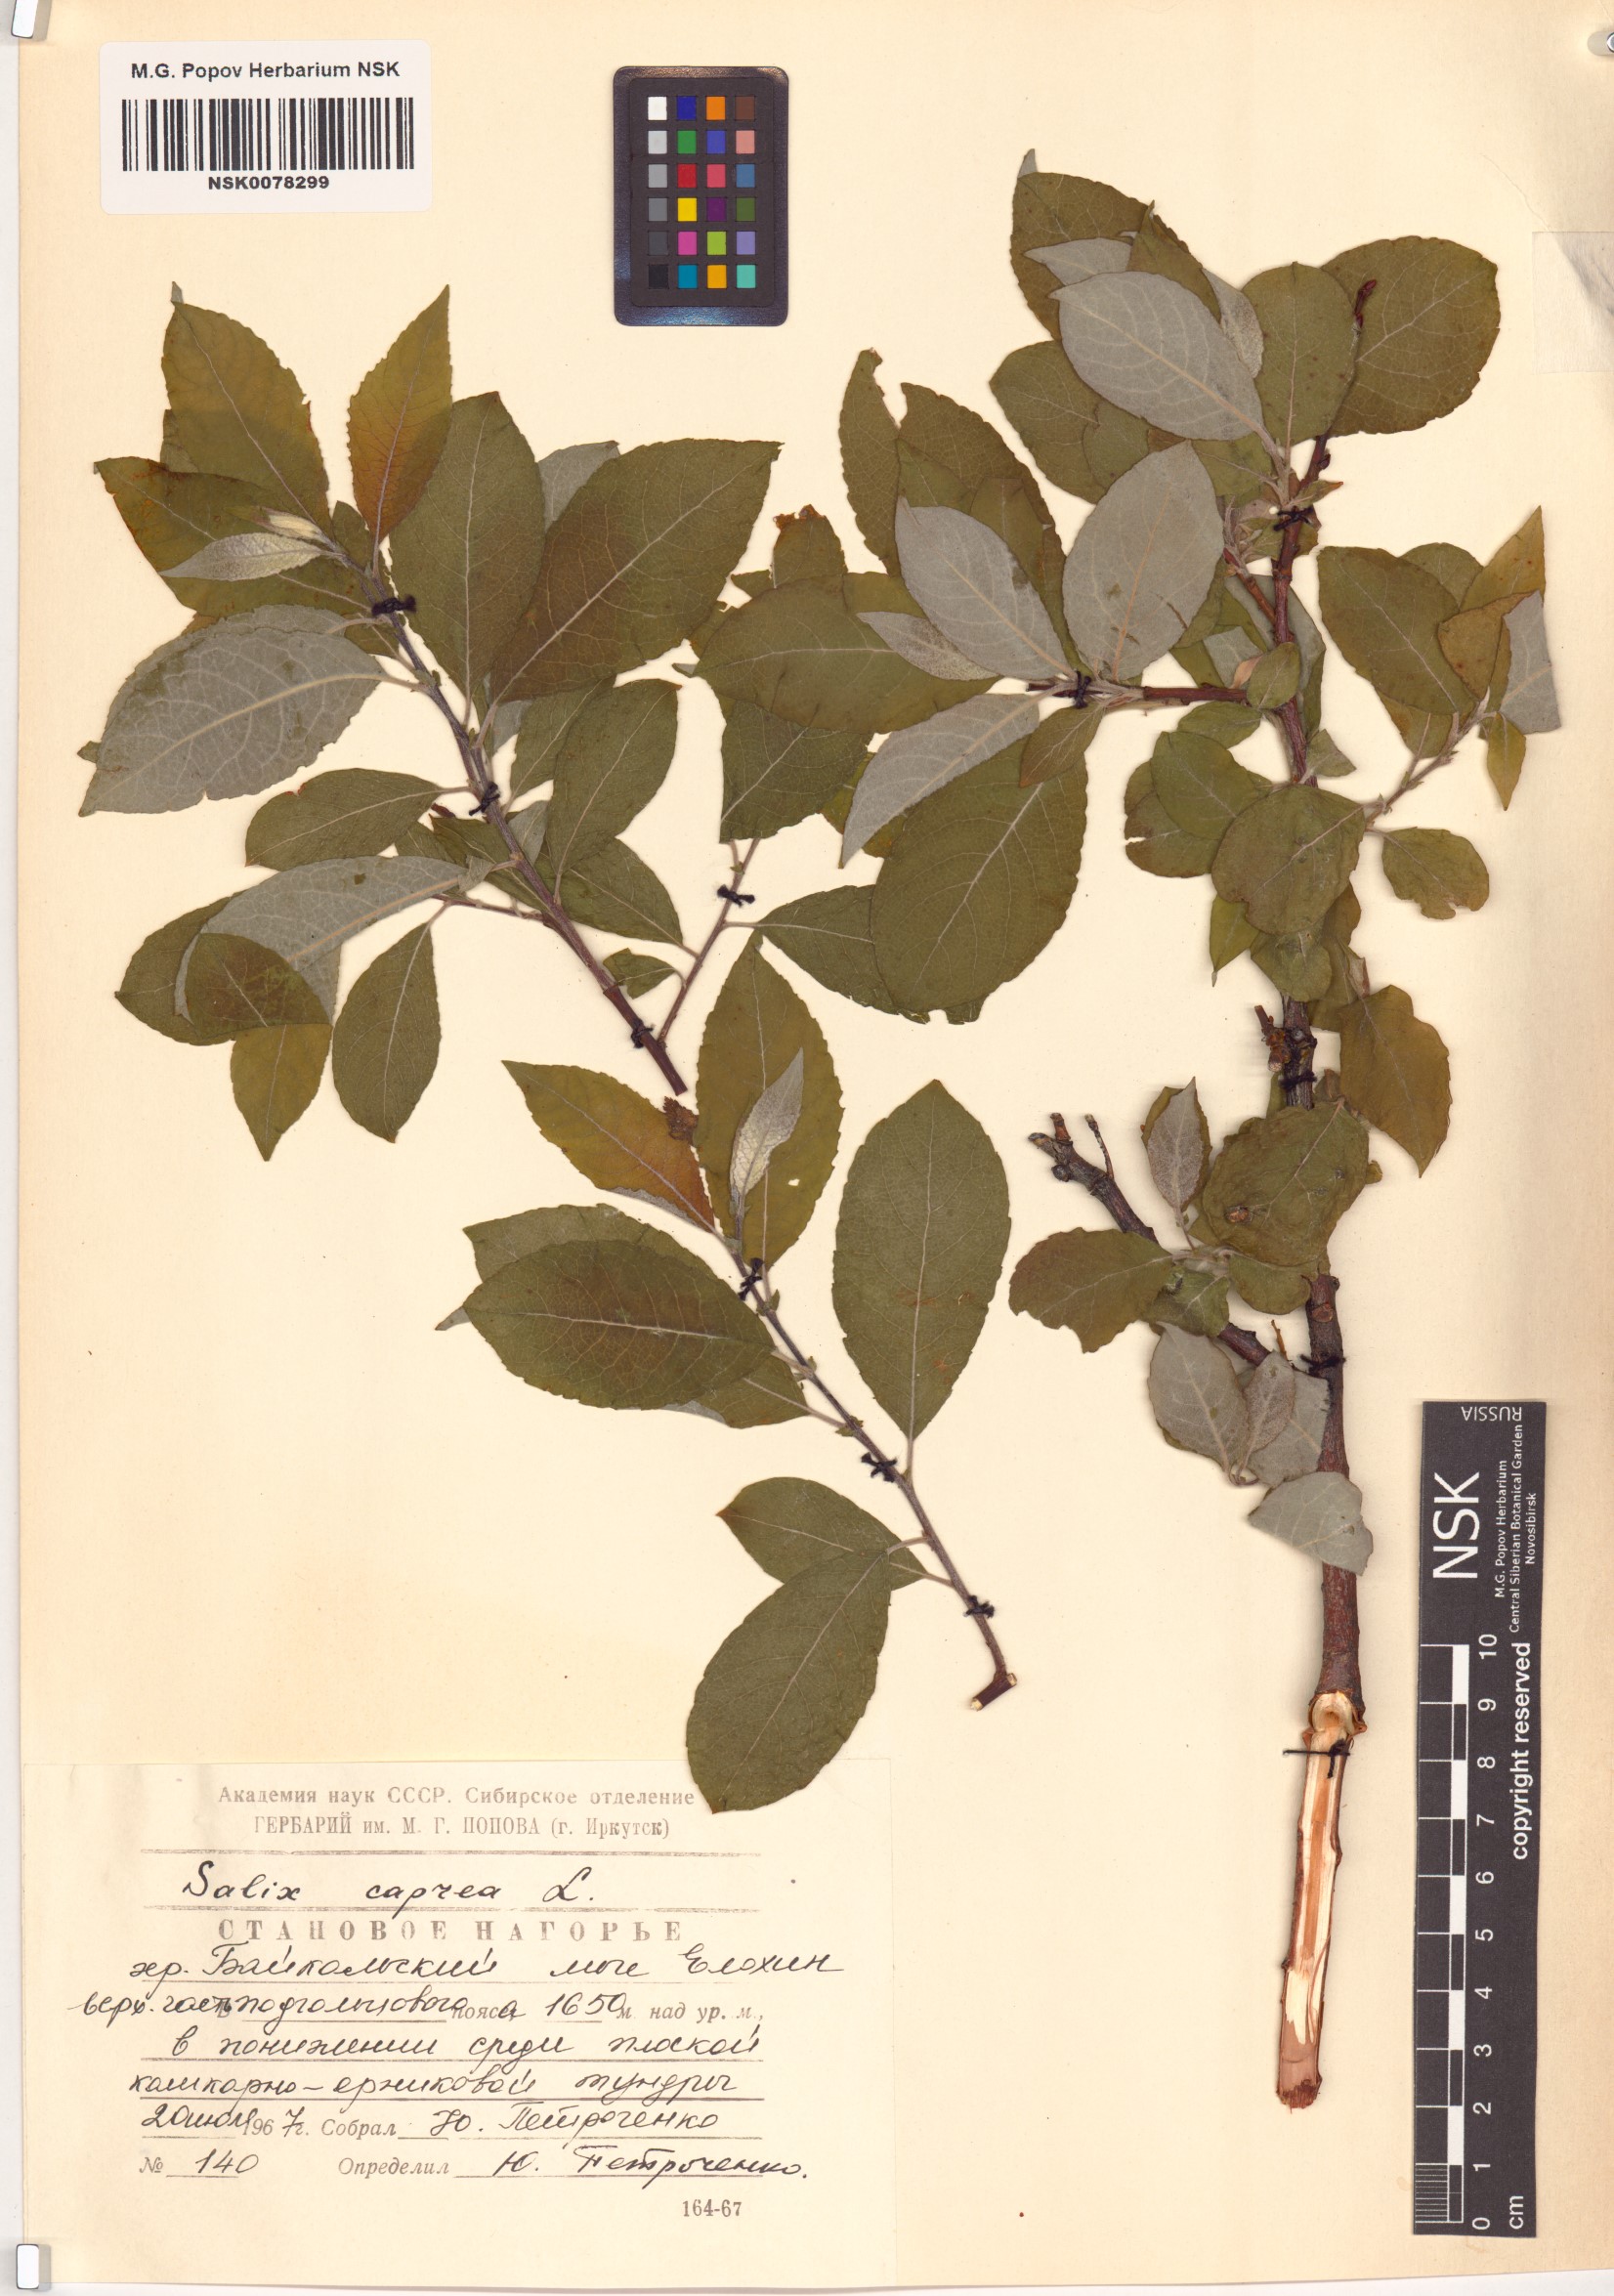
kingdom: Plantae
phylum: Tracheophyta
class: Magnoliopsida
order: Malpighiales
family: Salicaceae
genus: Salix
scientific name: Salix caprea
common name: Goat willow
